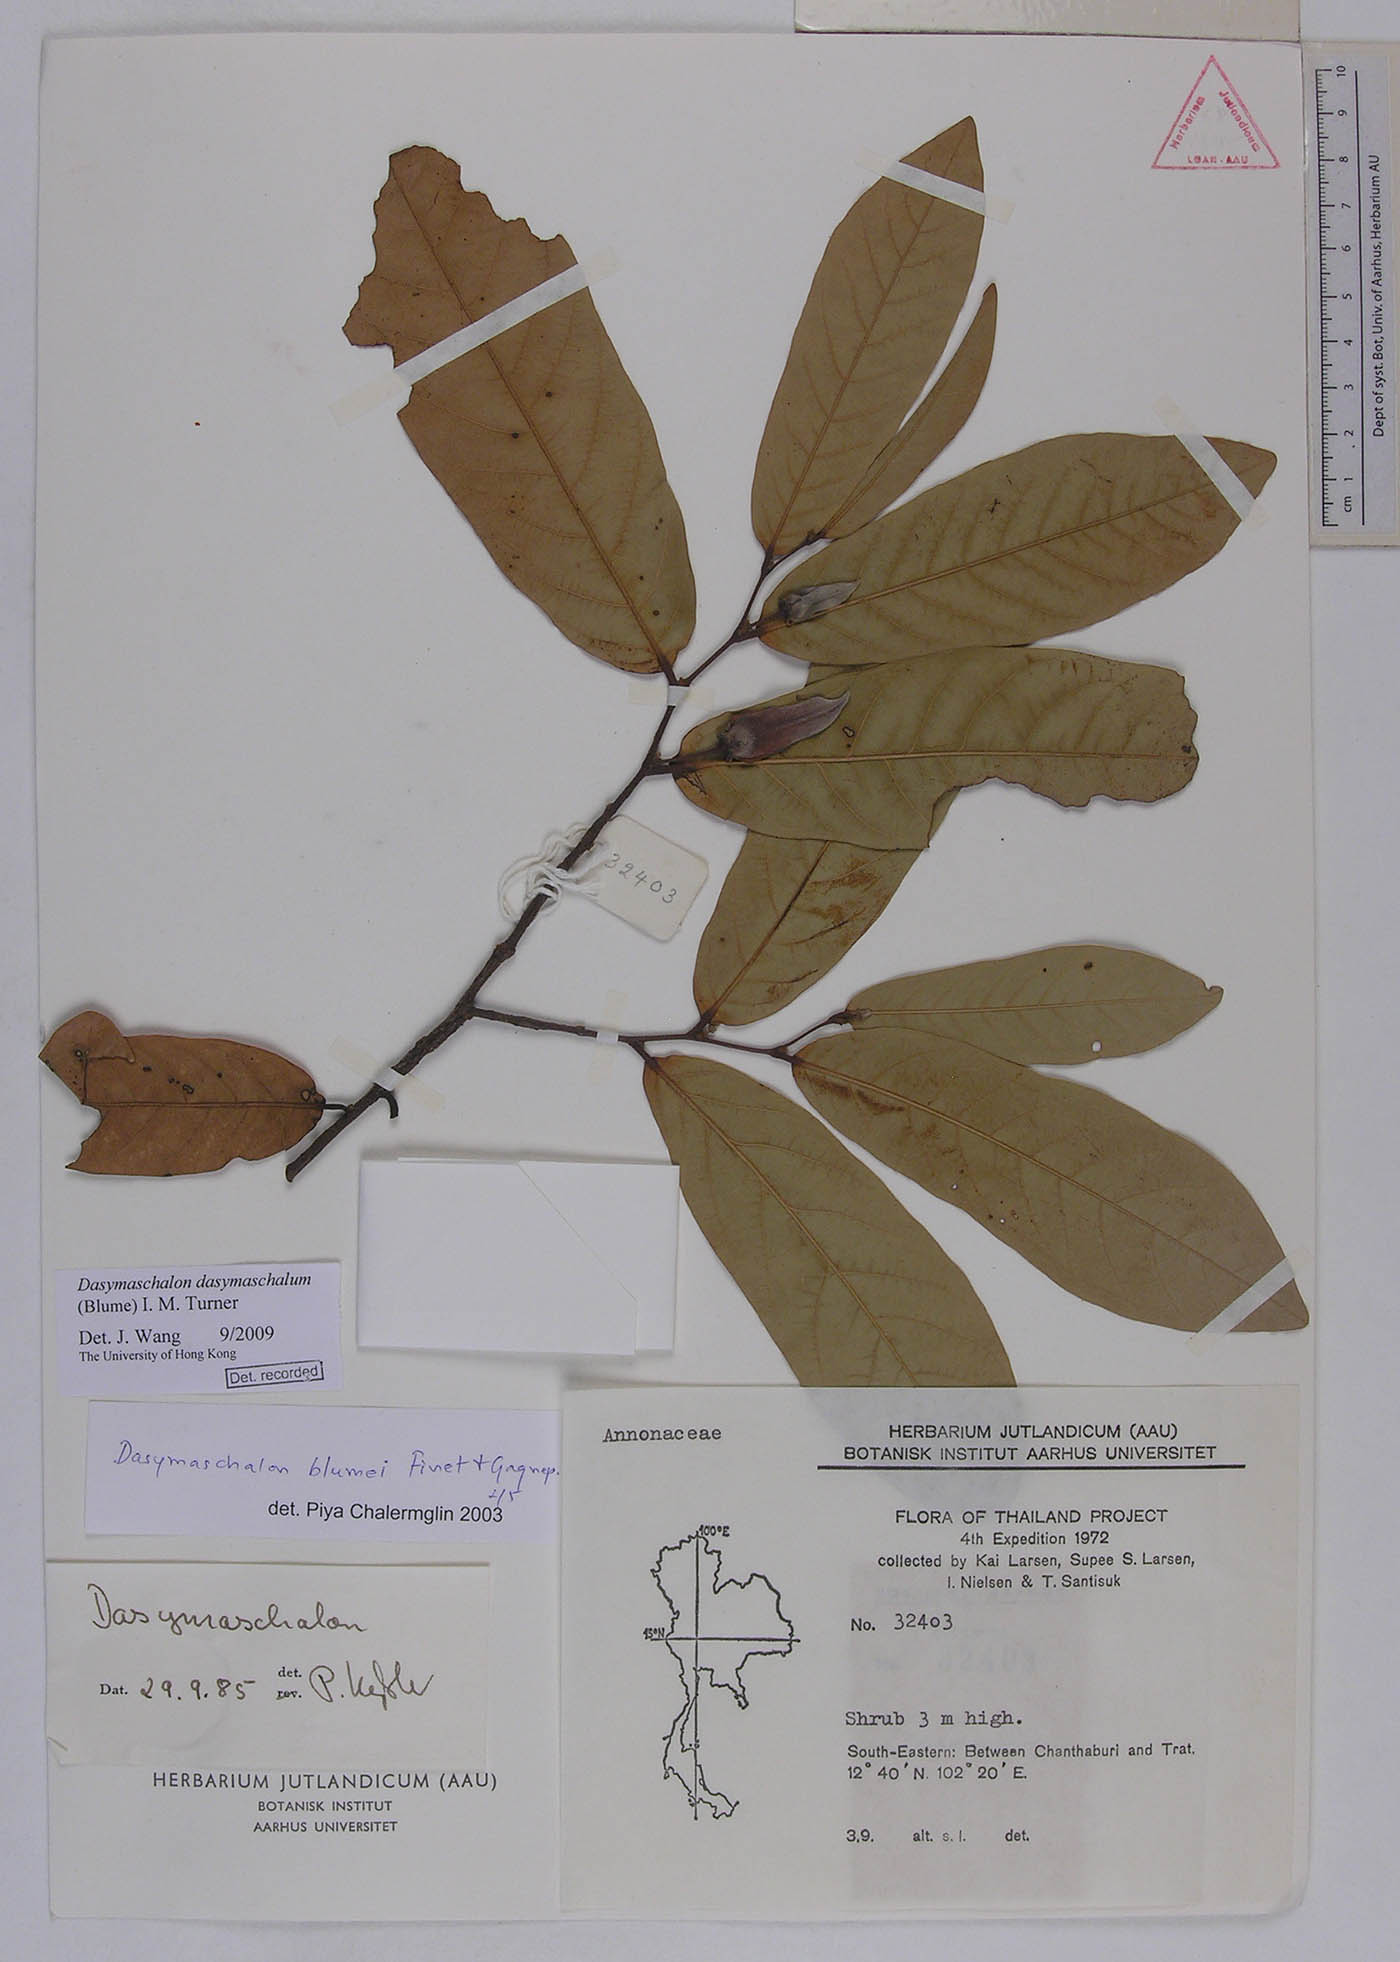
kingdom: Plantae
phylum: Tracheophyta
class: Magnoliopsida
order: Magnoliales
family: Annonaceae
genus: Dasymaschalon
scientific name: Dasymaschalon dasymaschalum
